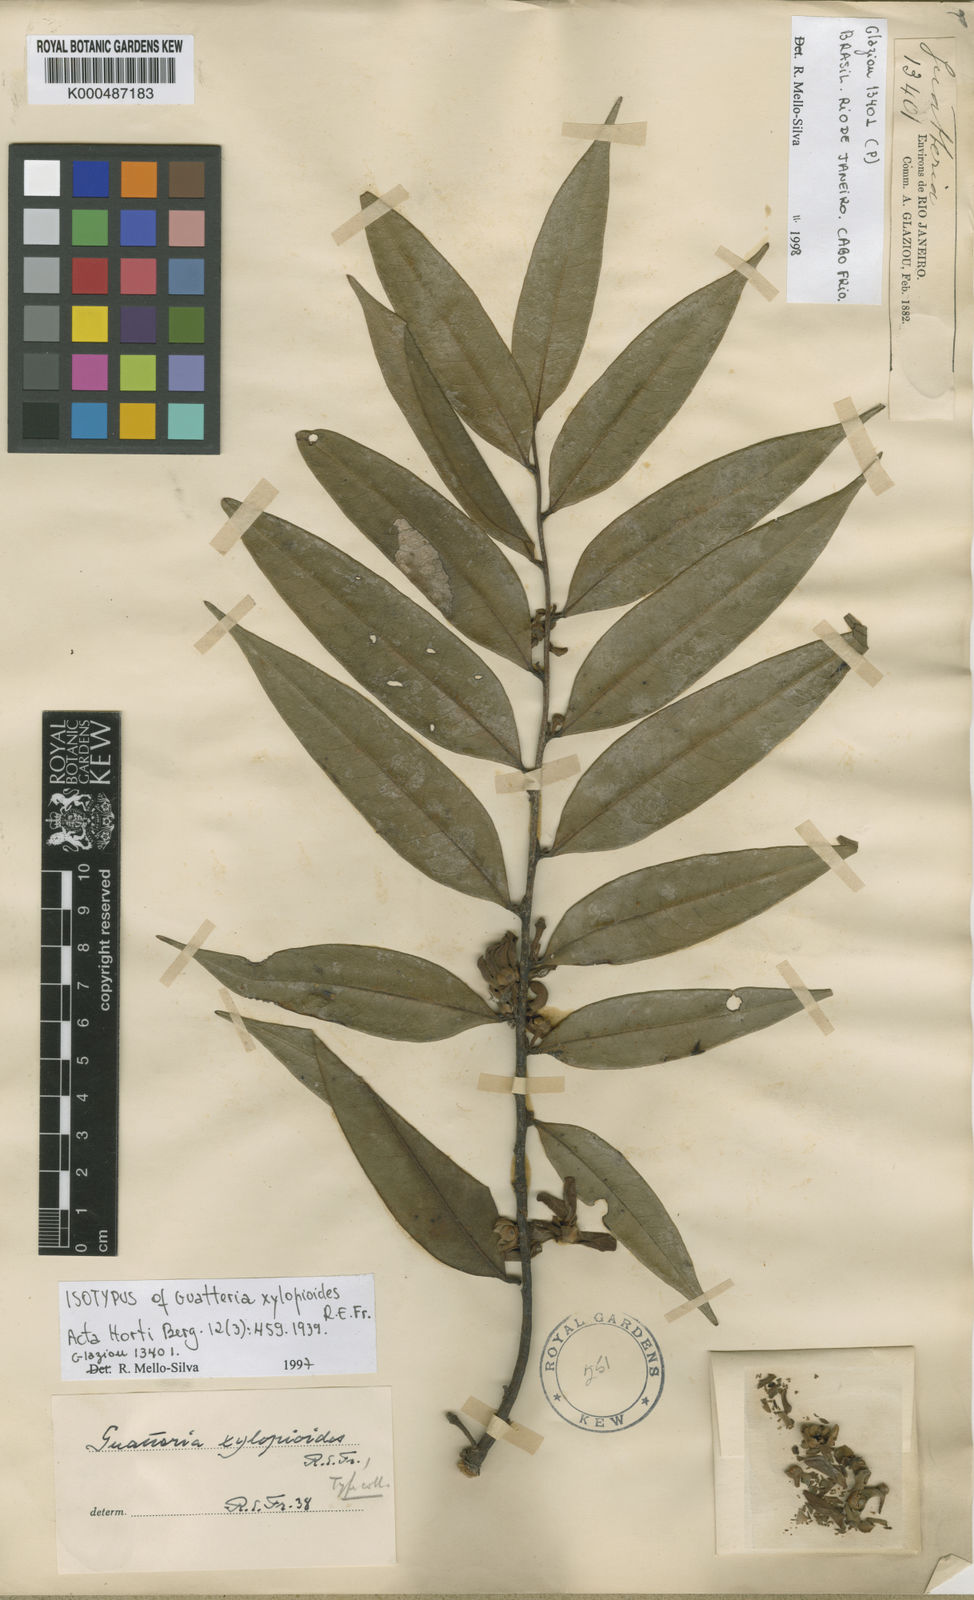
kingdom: Plantae
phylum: Tracheophyta
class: Magnoliopsida
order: Magnoliales
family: Annonaceae
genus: Guatteria
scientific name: Guatteria campestris
